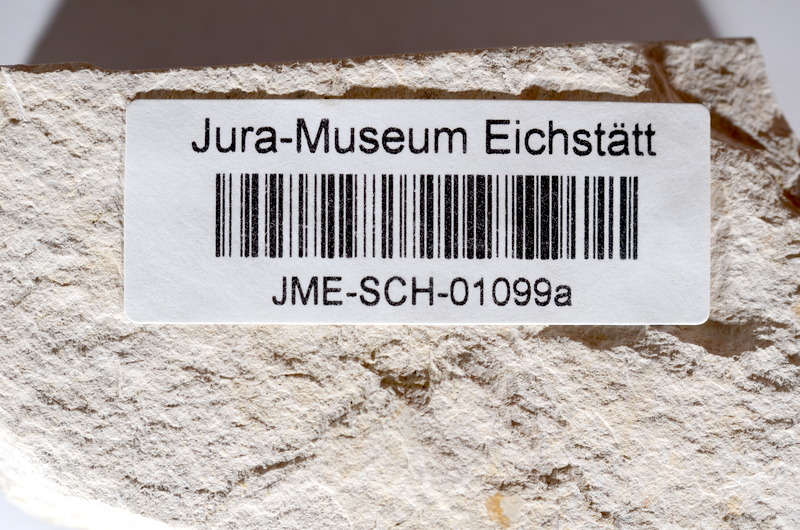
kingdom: Animalia
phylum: Chordata
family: Ascalaboidae
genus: Tharsis
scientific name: Tharsis dubius
